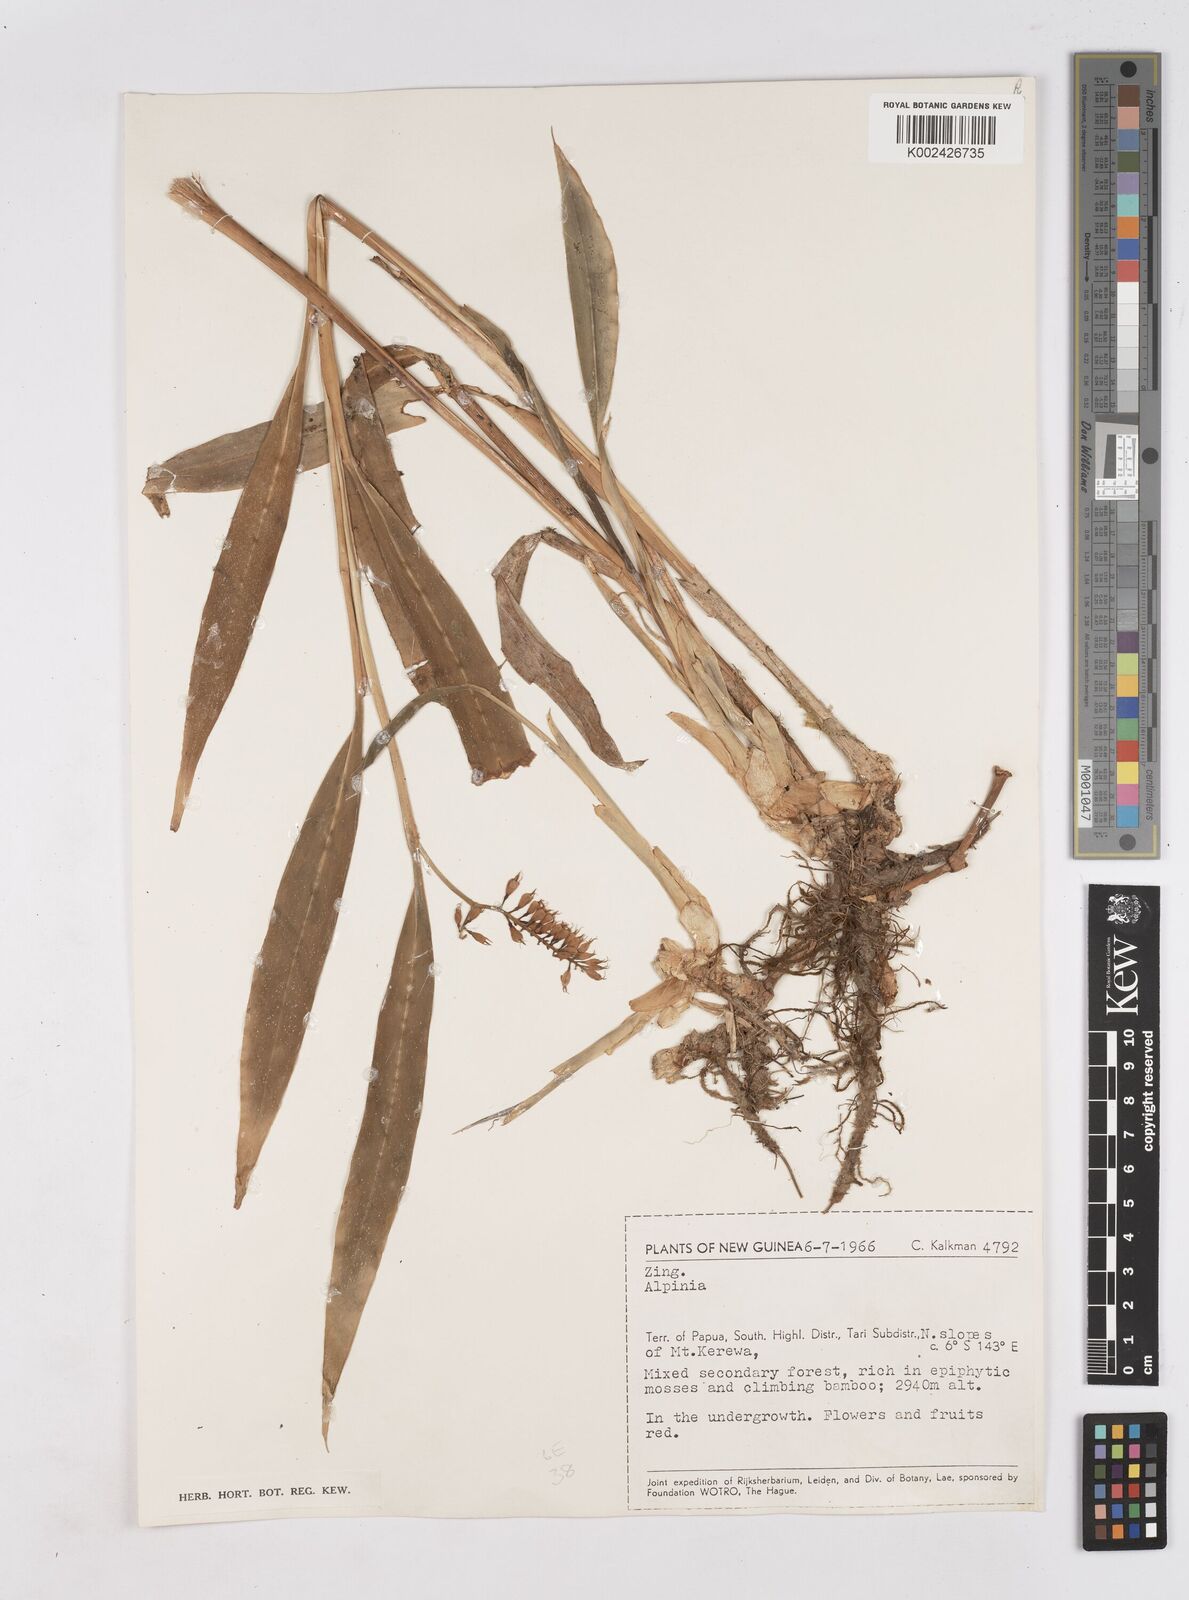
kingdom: Plantae
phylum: Tracheophyta
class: Liliopsida
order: Zingiberales
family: Zingiberaceae
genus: Riedelia
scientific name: Riedelia
